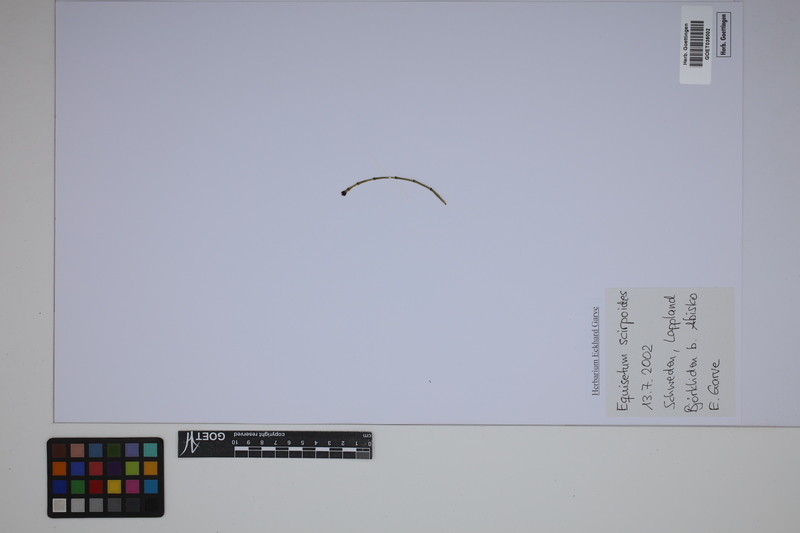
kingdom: Plantae
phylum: Tracheophyta
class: Polypodiopsida
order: Equisetales
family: Equisetaceae
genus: Equisetum
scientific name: Equisetum scirpoides
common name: Delicate horsetail
